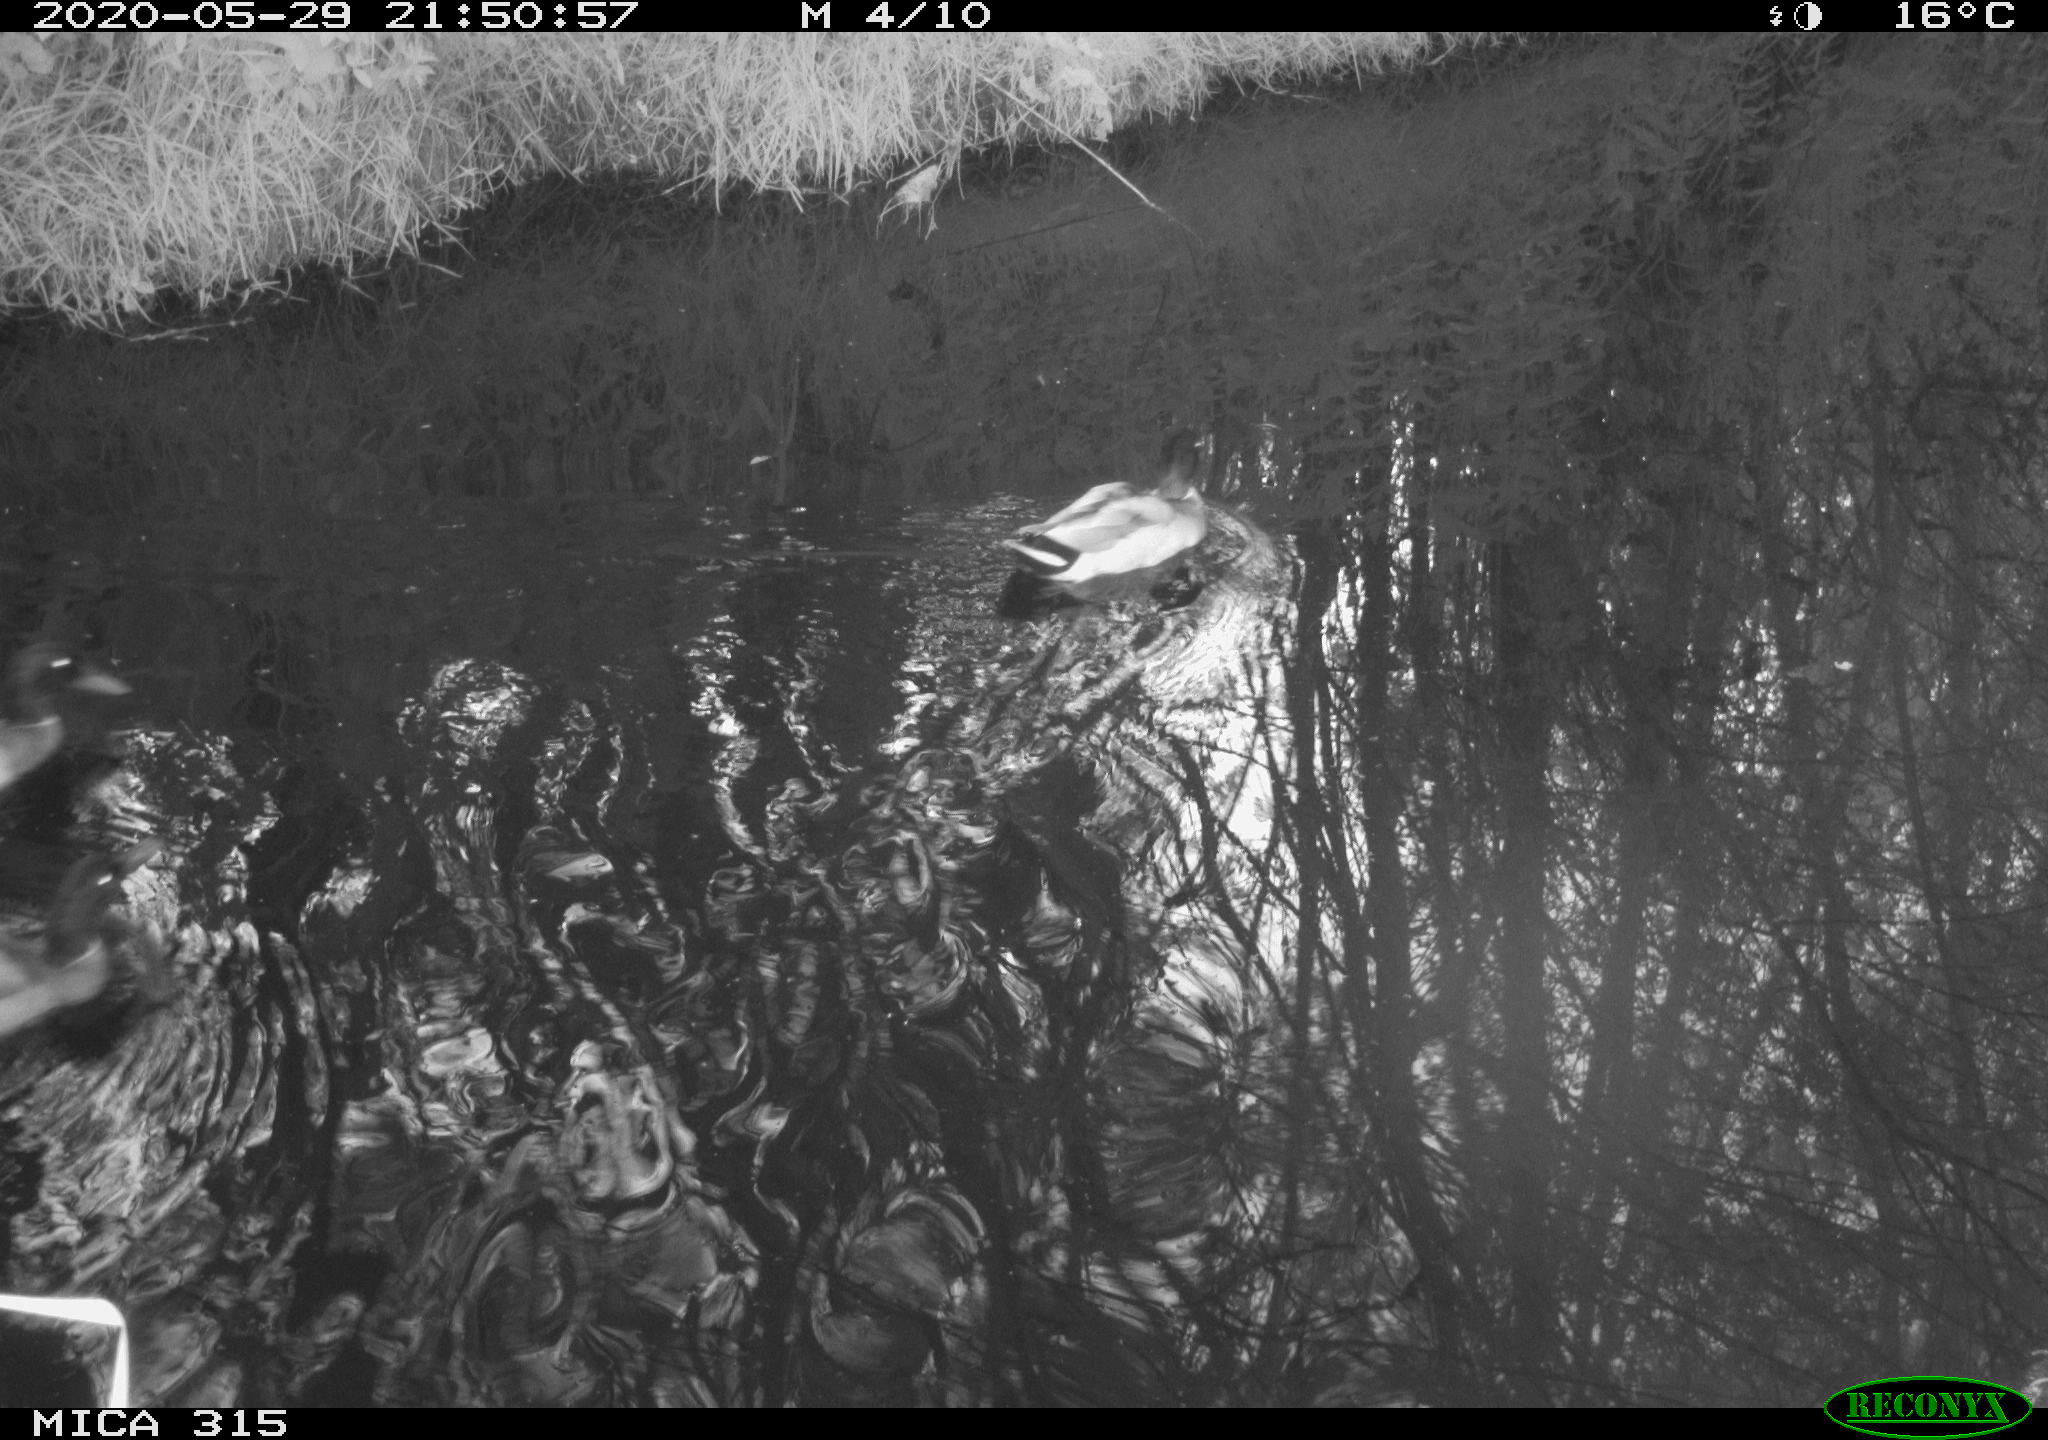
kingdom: Animalia
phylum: Chordata
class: Aves
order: Anseriformes
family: Anatidae
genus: Anas
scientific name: Anas platyrhynchos
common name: Mallard
